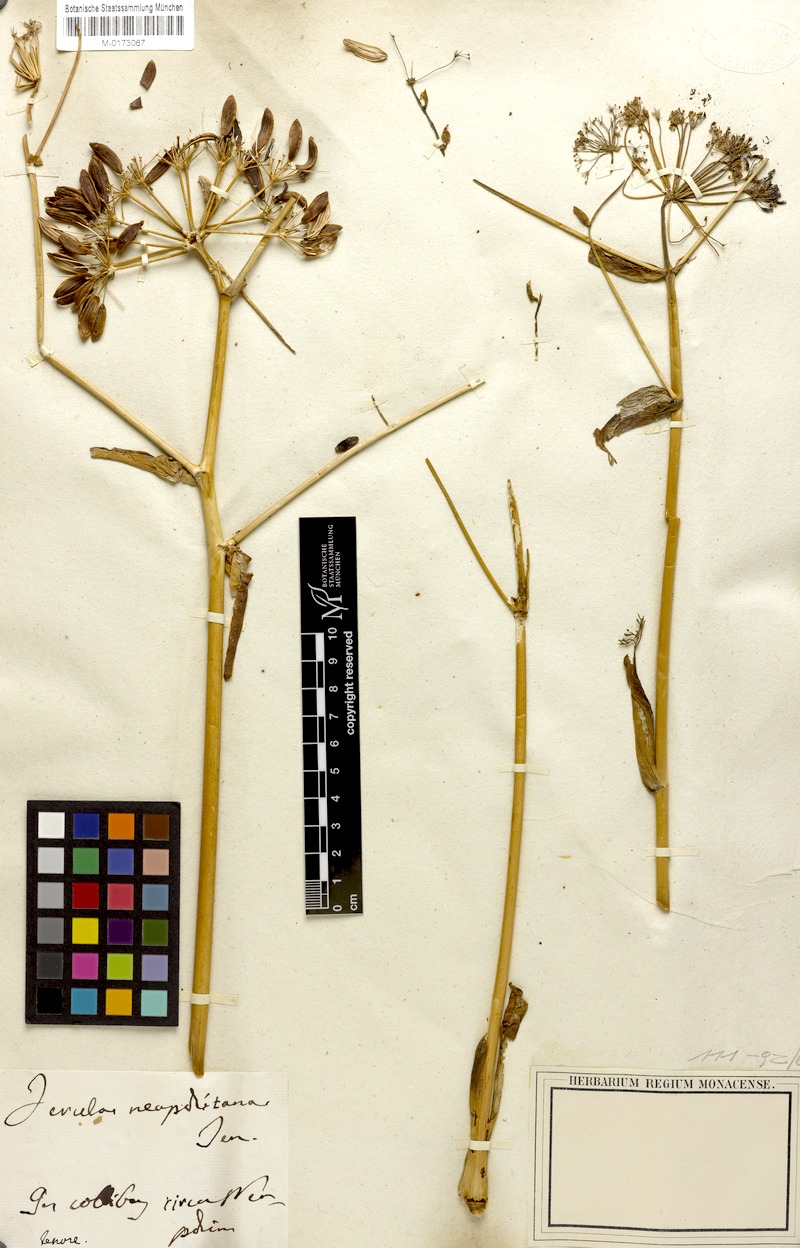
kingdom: Plantae
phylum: Tracheophyta
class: Magnoliopsida
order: Apiales
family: Apiaceae
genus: Ferula
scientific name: Ferula communis
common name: Giant fennel
